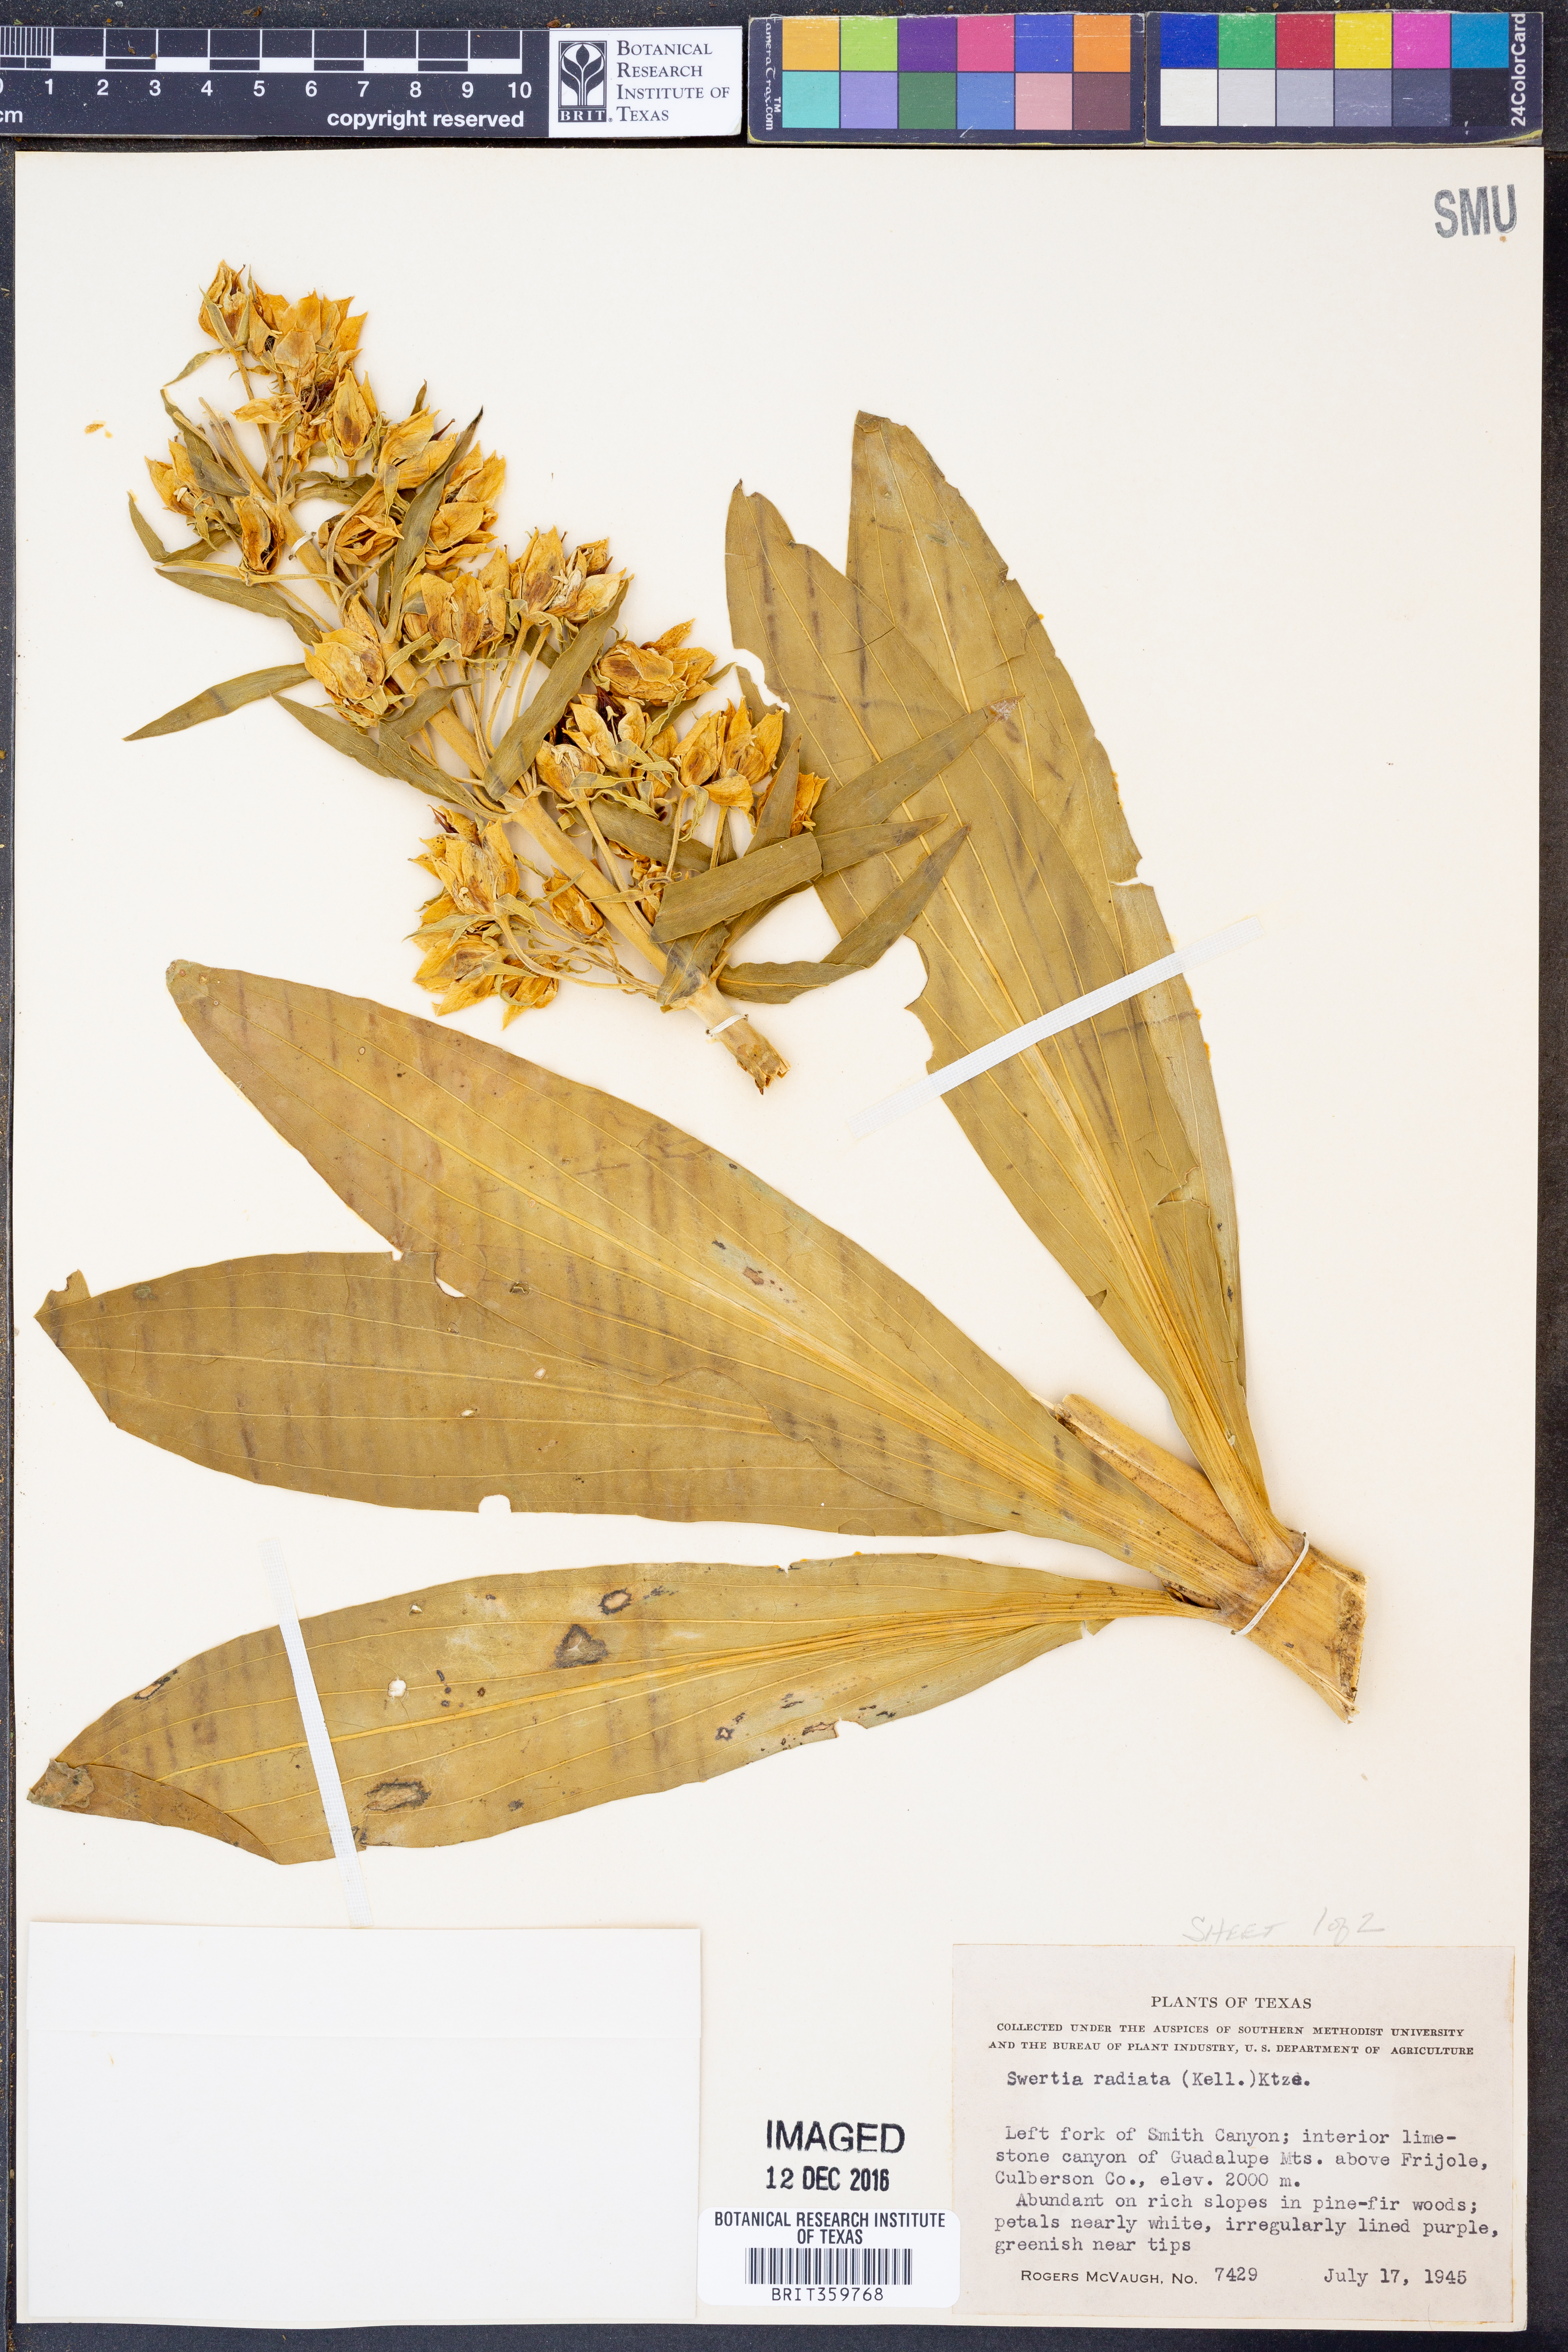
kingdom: Plantae
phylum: Tracheophyta
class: Magnoliopsida
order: Gentianales
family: Gentianaceae
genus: Frasera
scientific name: Frasera speciosa
